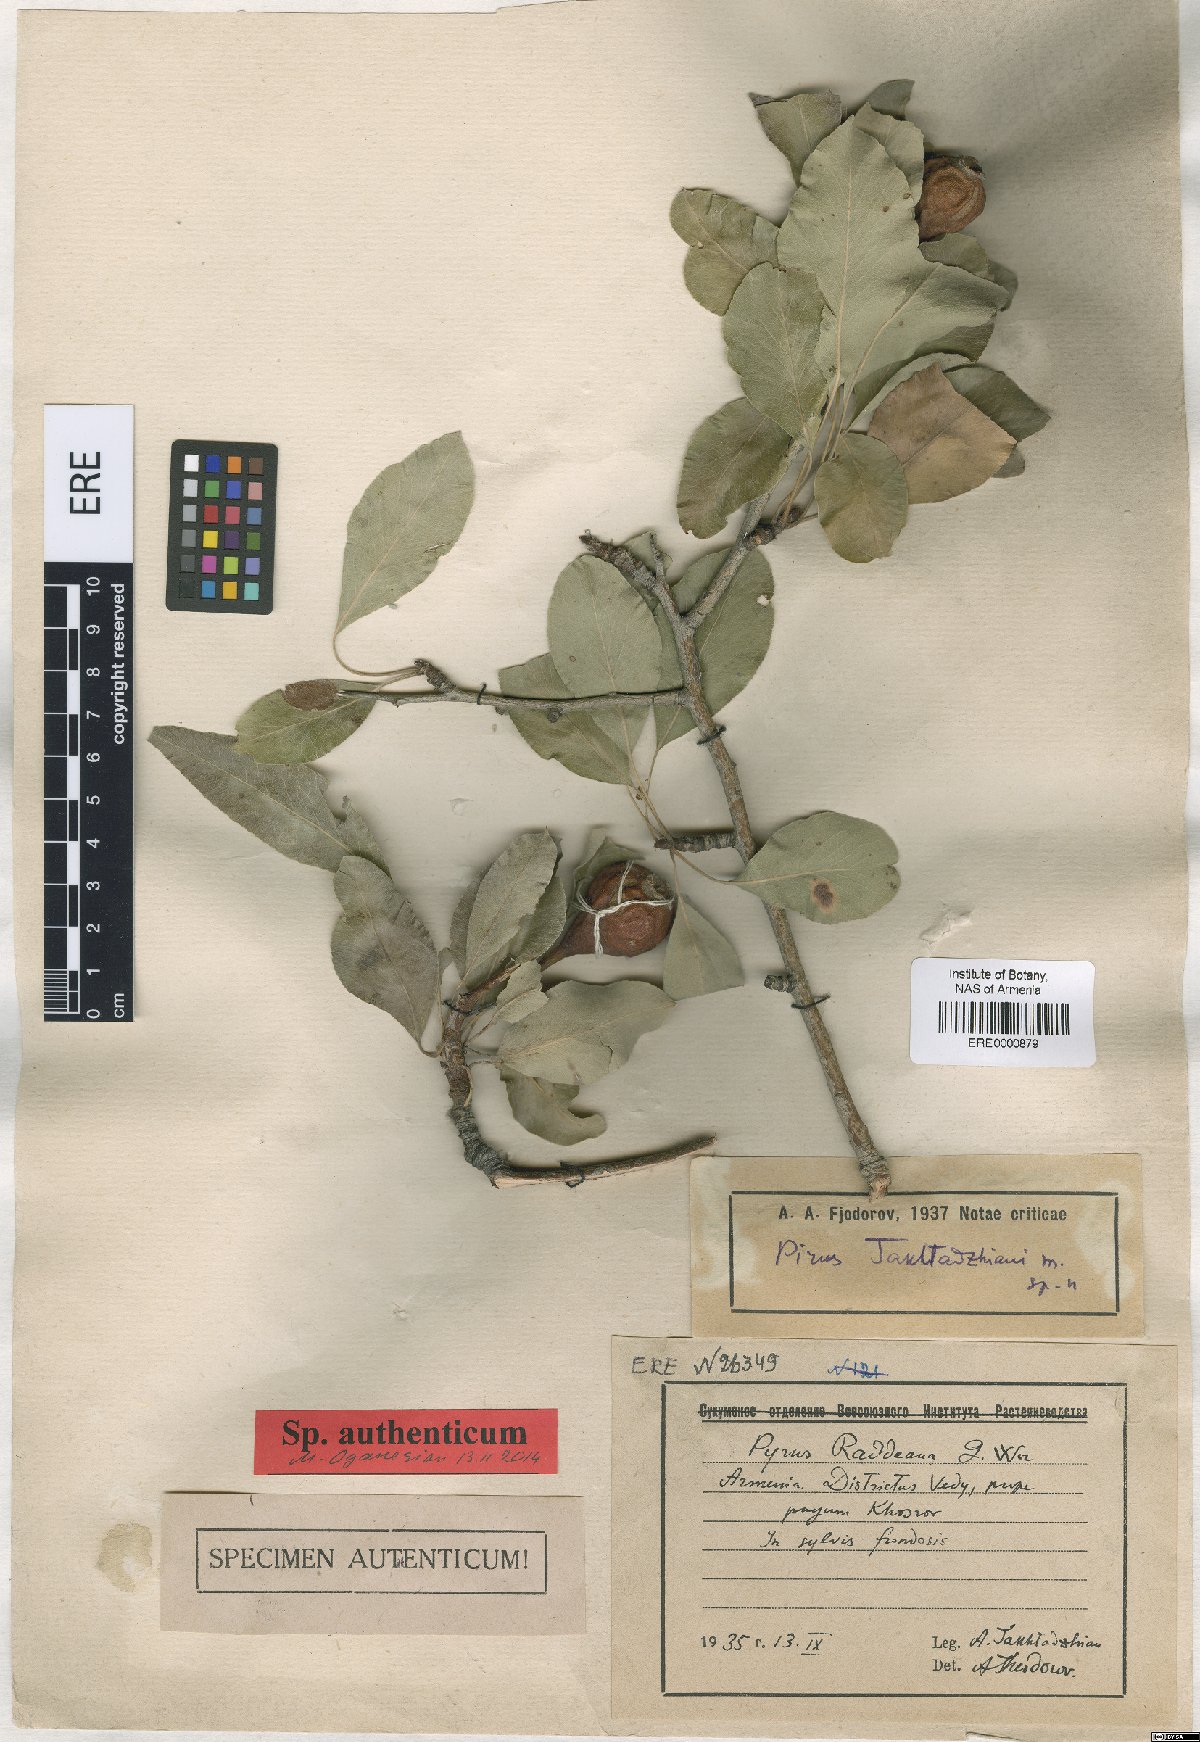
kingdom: Plantae
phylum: Tracheophyta
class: Magnoliopsida
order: Rosales
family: Rosaceae
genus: Pyrus
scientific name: Pyrus takhtadzhianii
